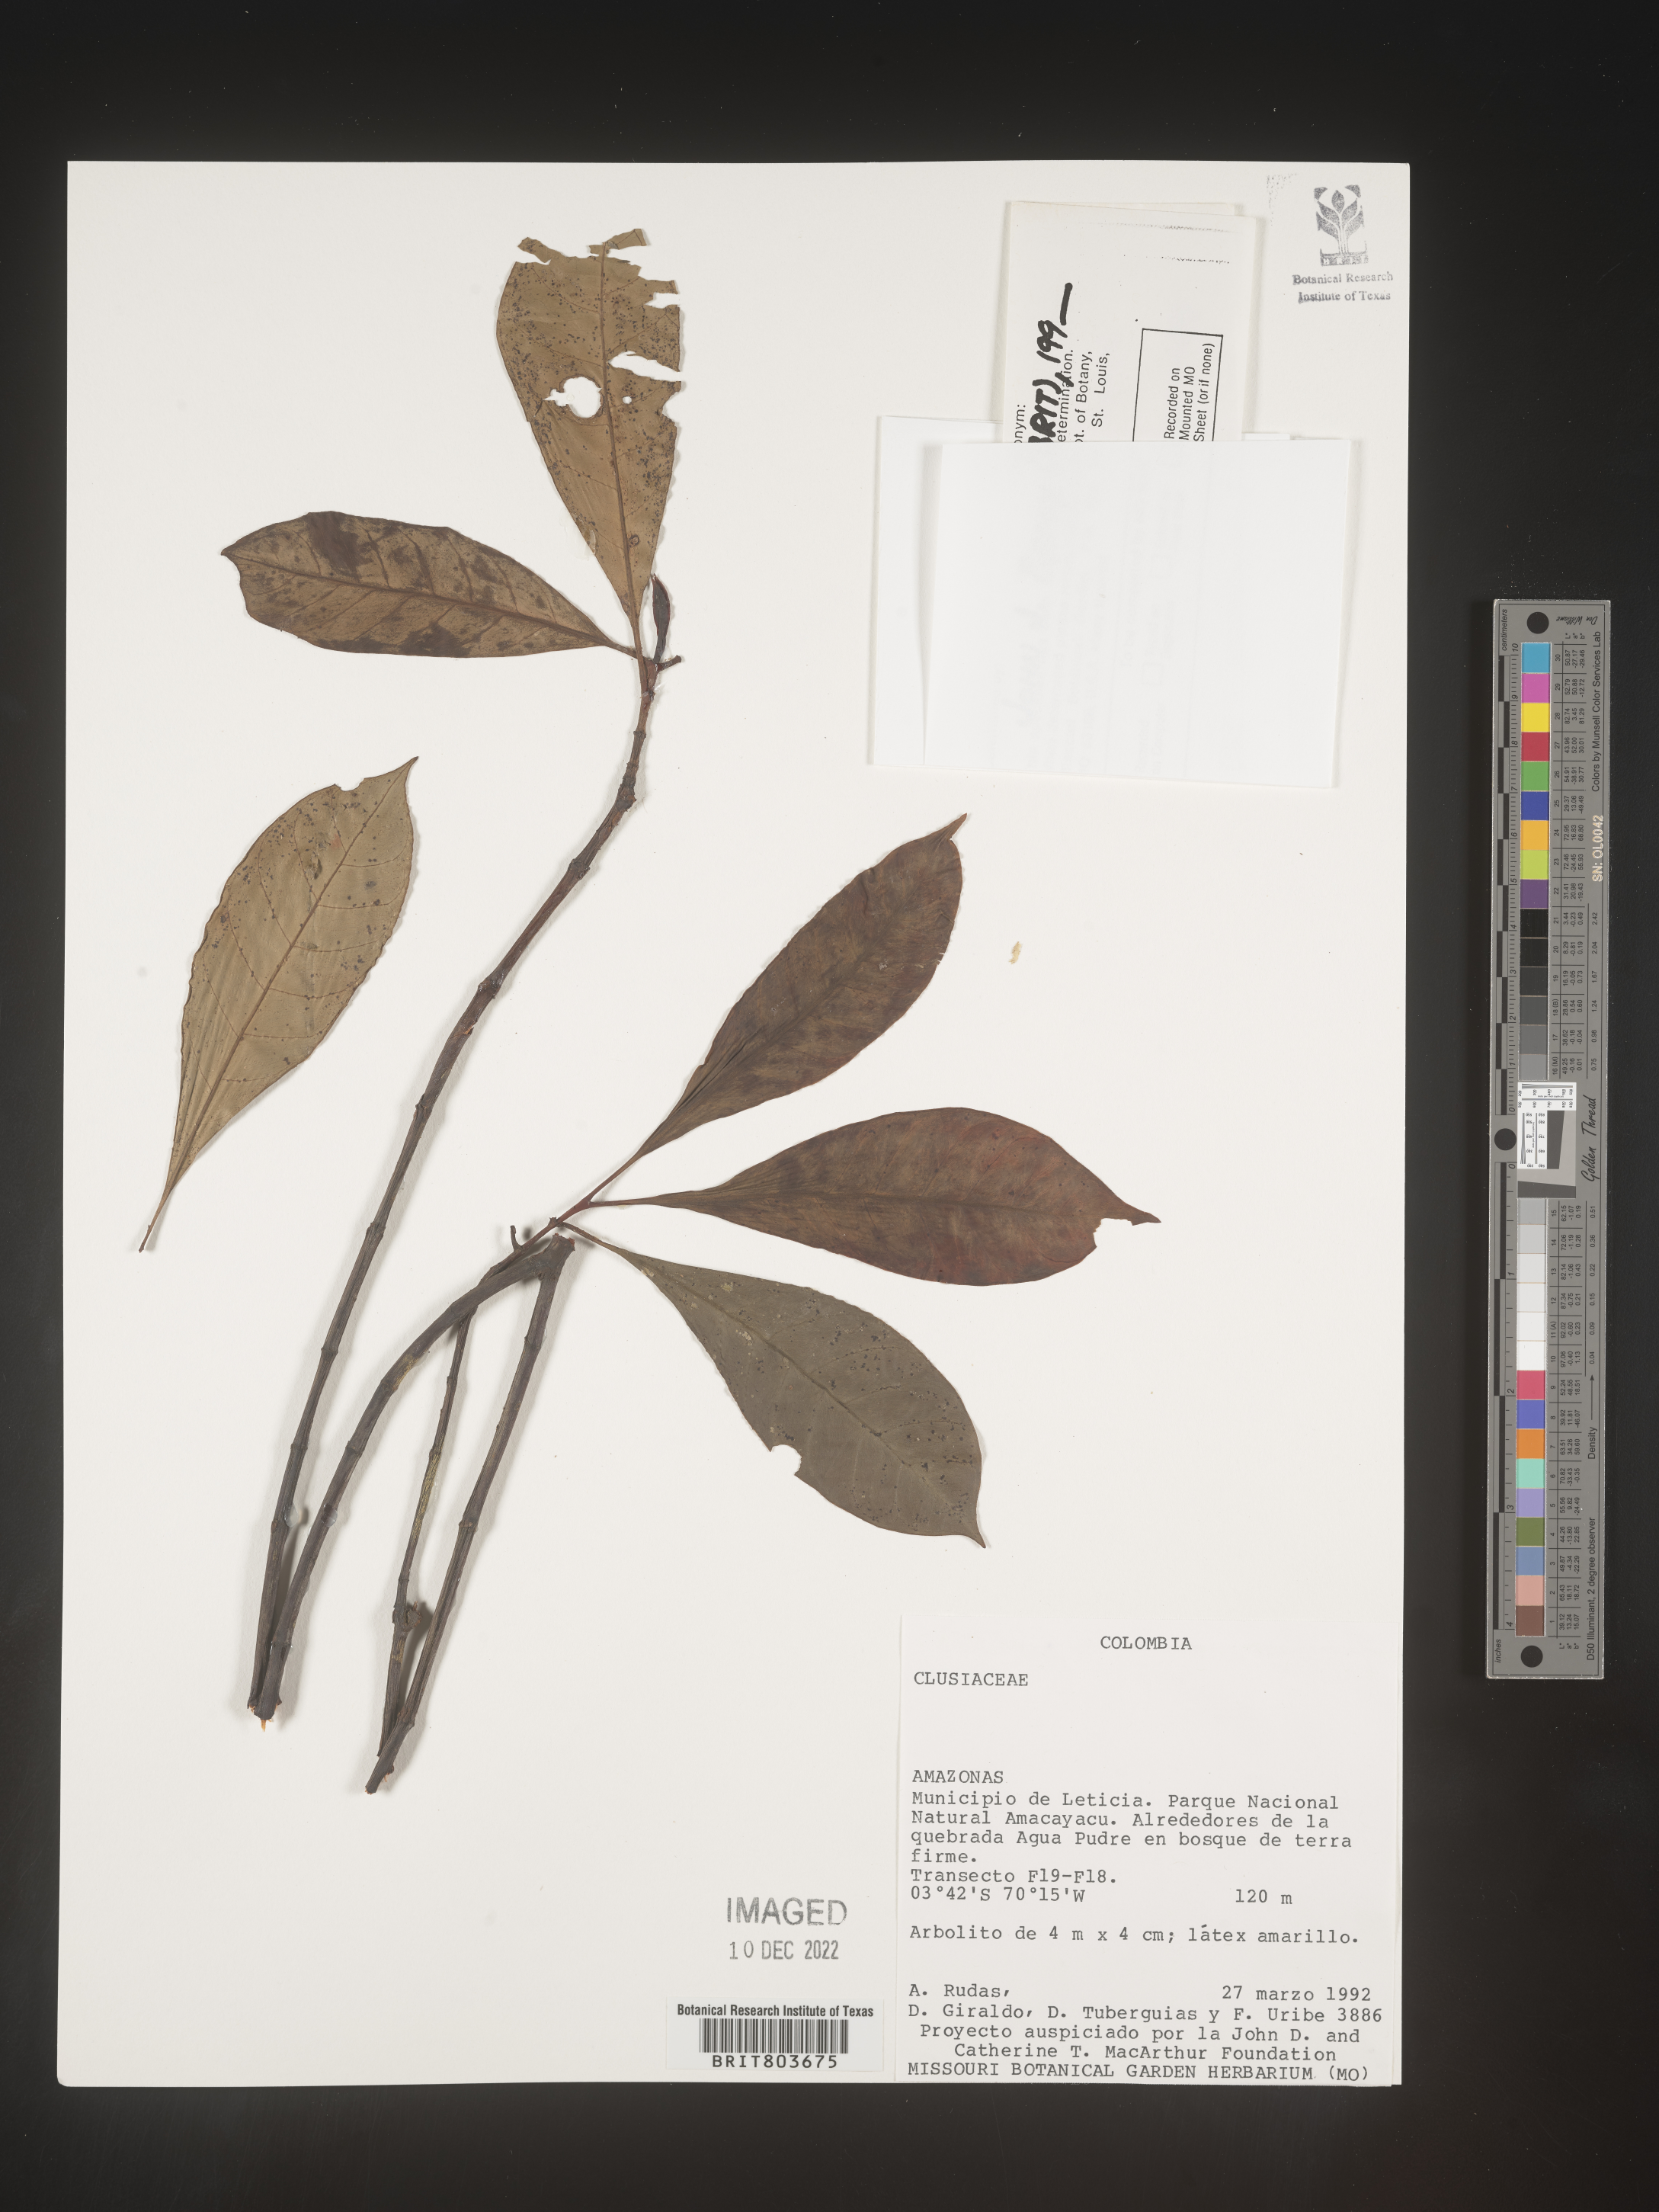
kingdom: Plantae
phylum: Tracheophyta
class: Magnoliopsida
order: Malpighiales
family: Clusiaceae
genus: Tovomita
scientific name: Tovomita
